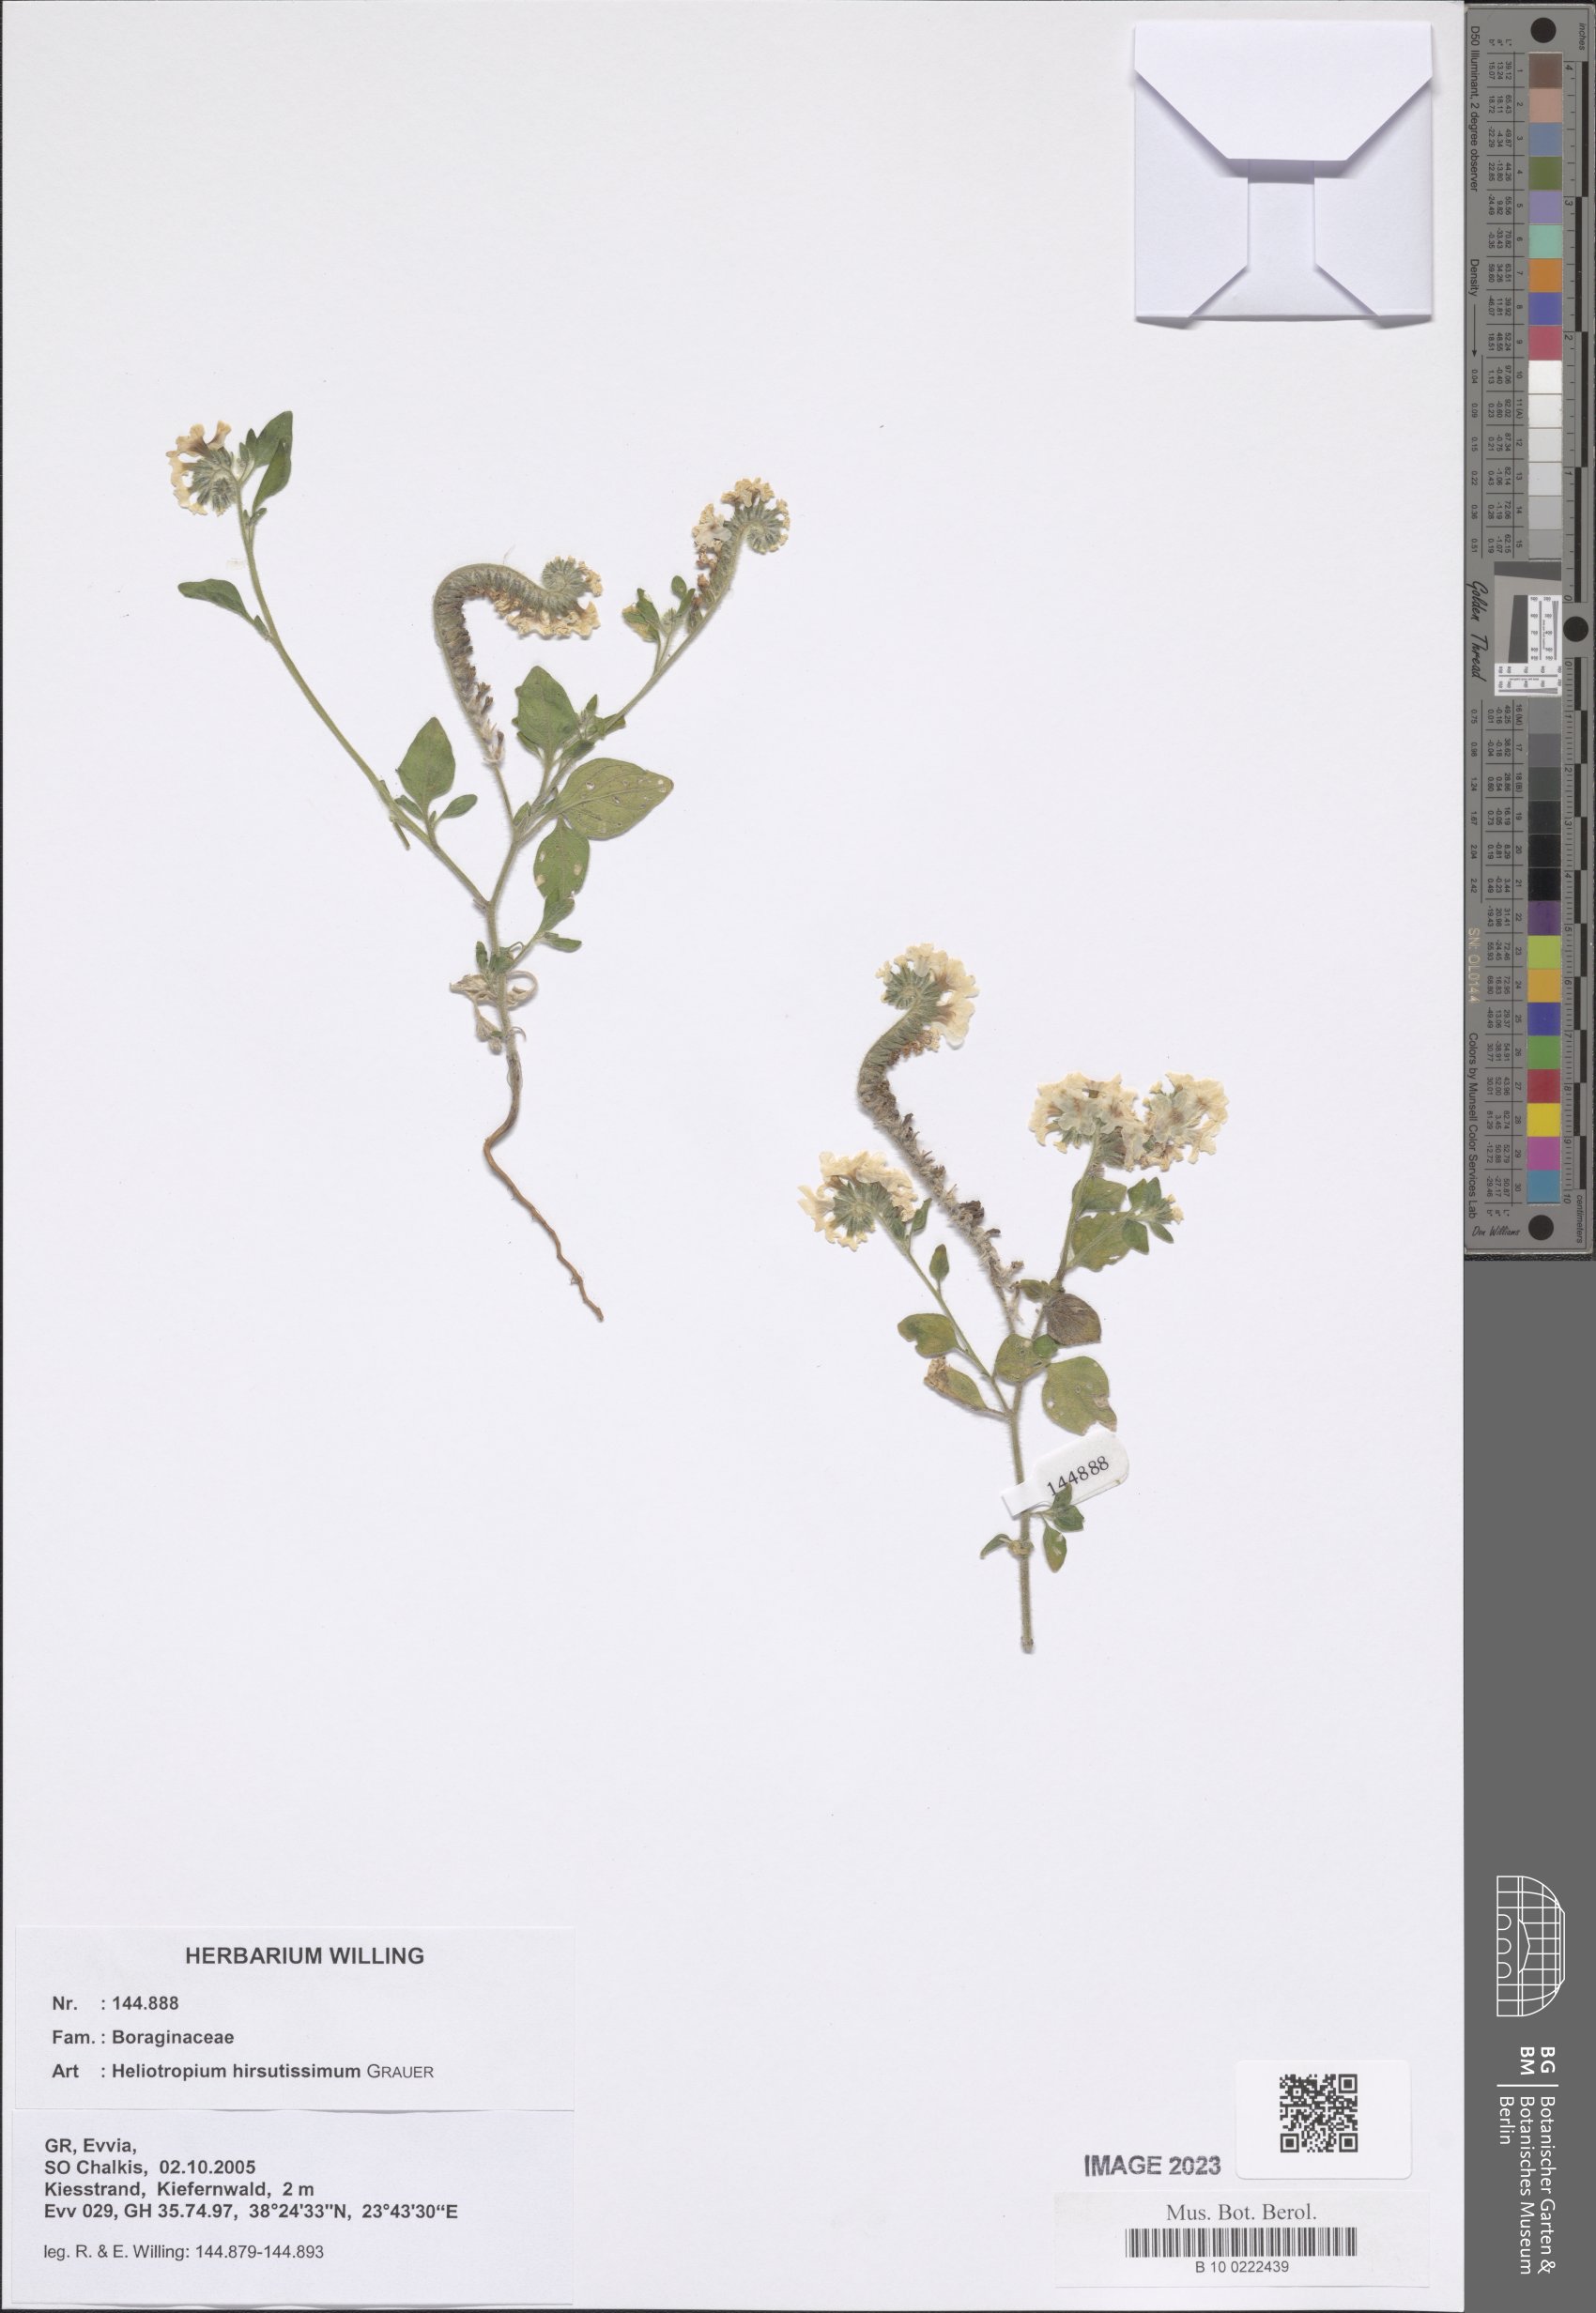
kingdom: Plantae
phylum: Tracheophyta
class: Magnoliopsida
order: Boraginales
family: Heliotropiaceae
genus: Heliotropium
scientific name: Heliotropium hirsutissimum
